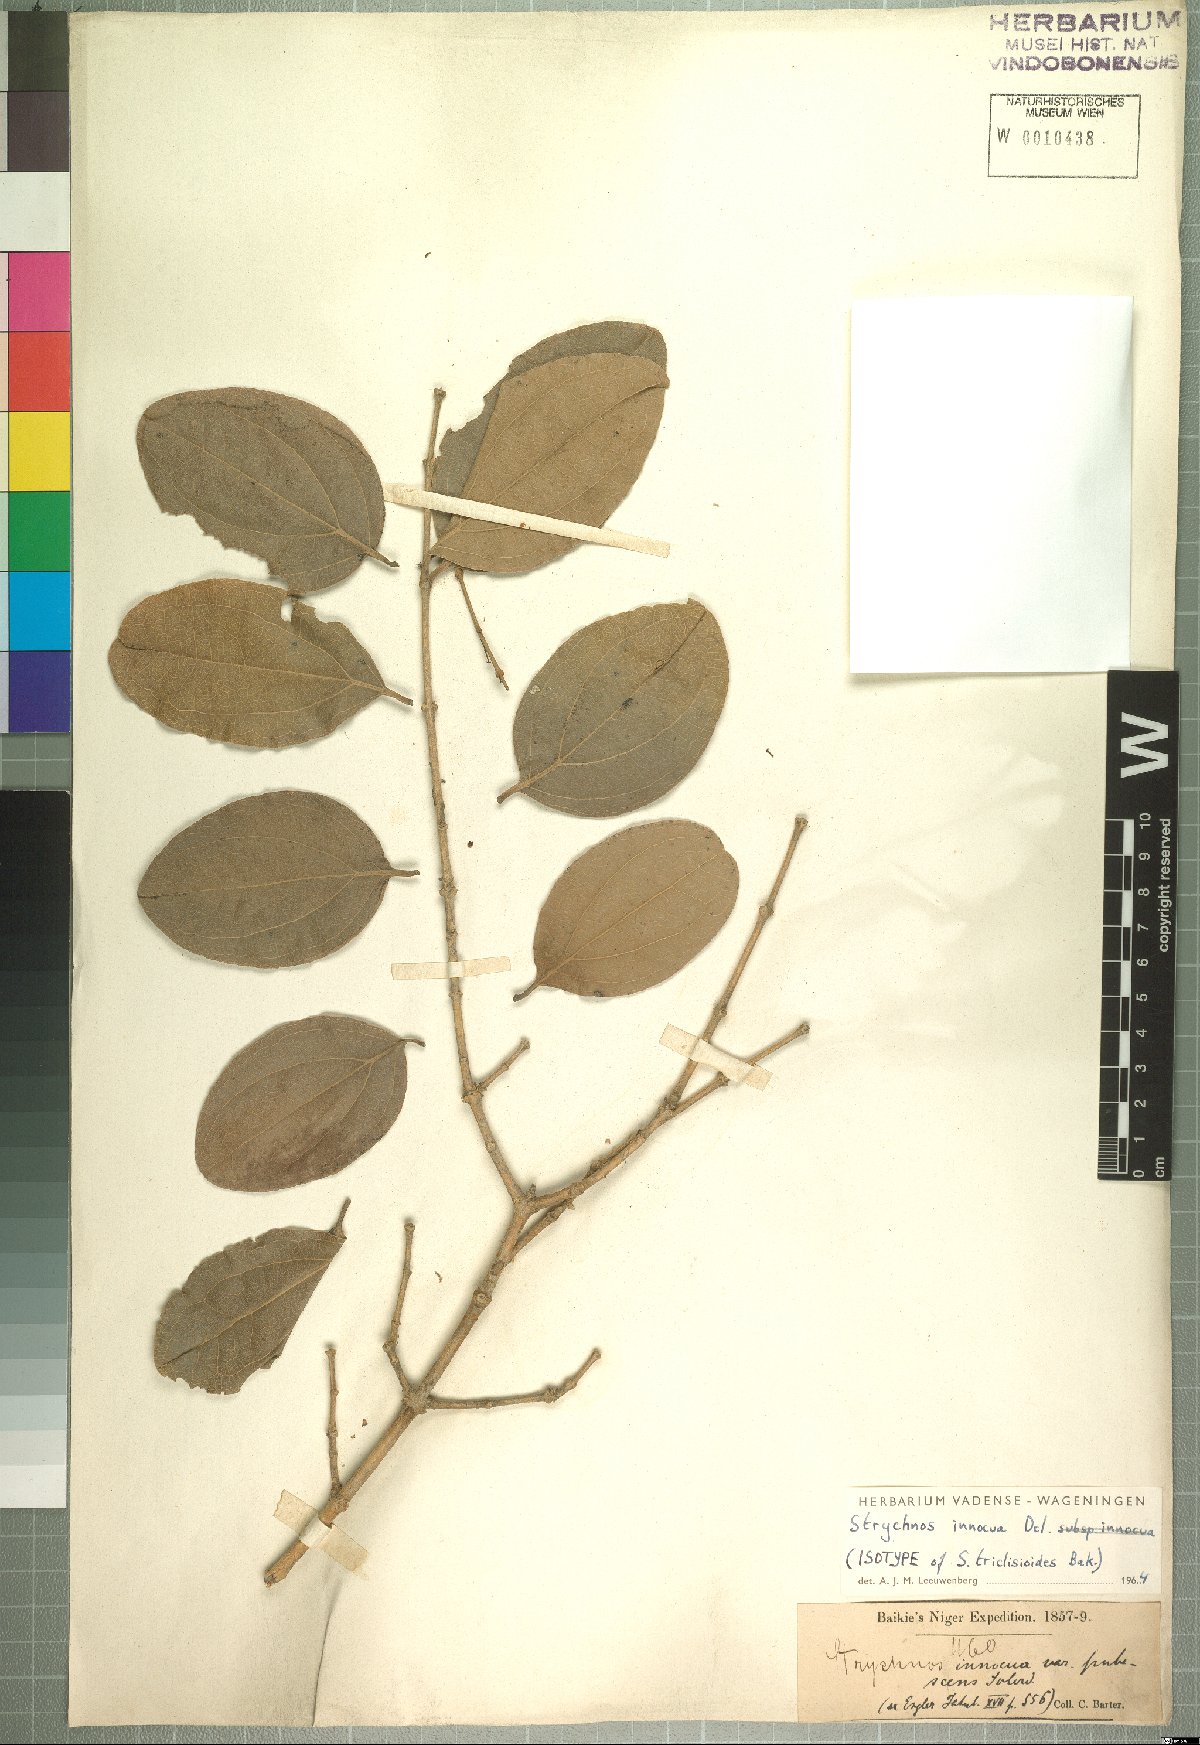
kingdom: Plantae
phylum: Tracheophyta
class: Magnoliopsida
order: Gentianales
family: Loganiaceae
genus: Strychnos
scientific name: Strychnos innocua
